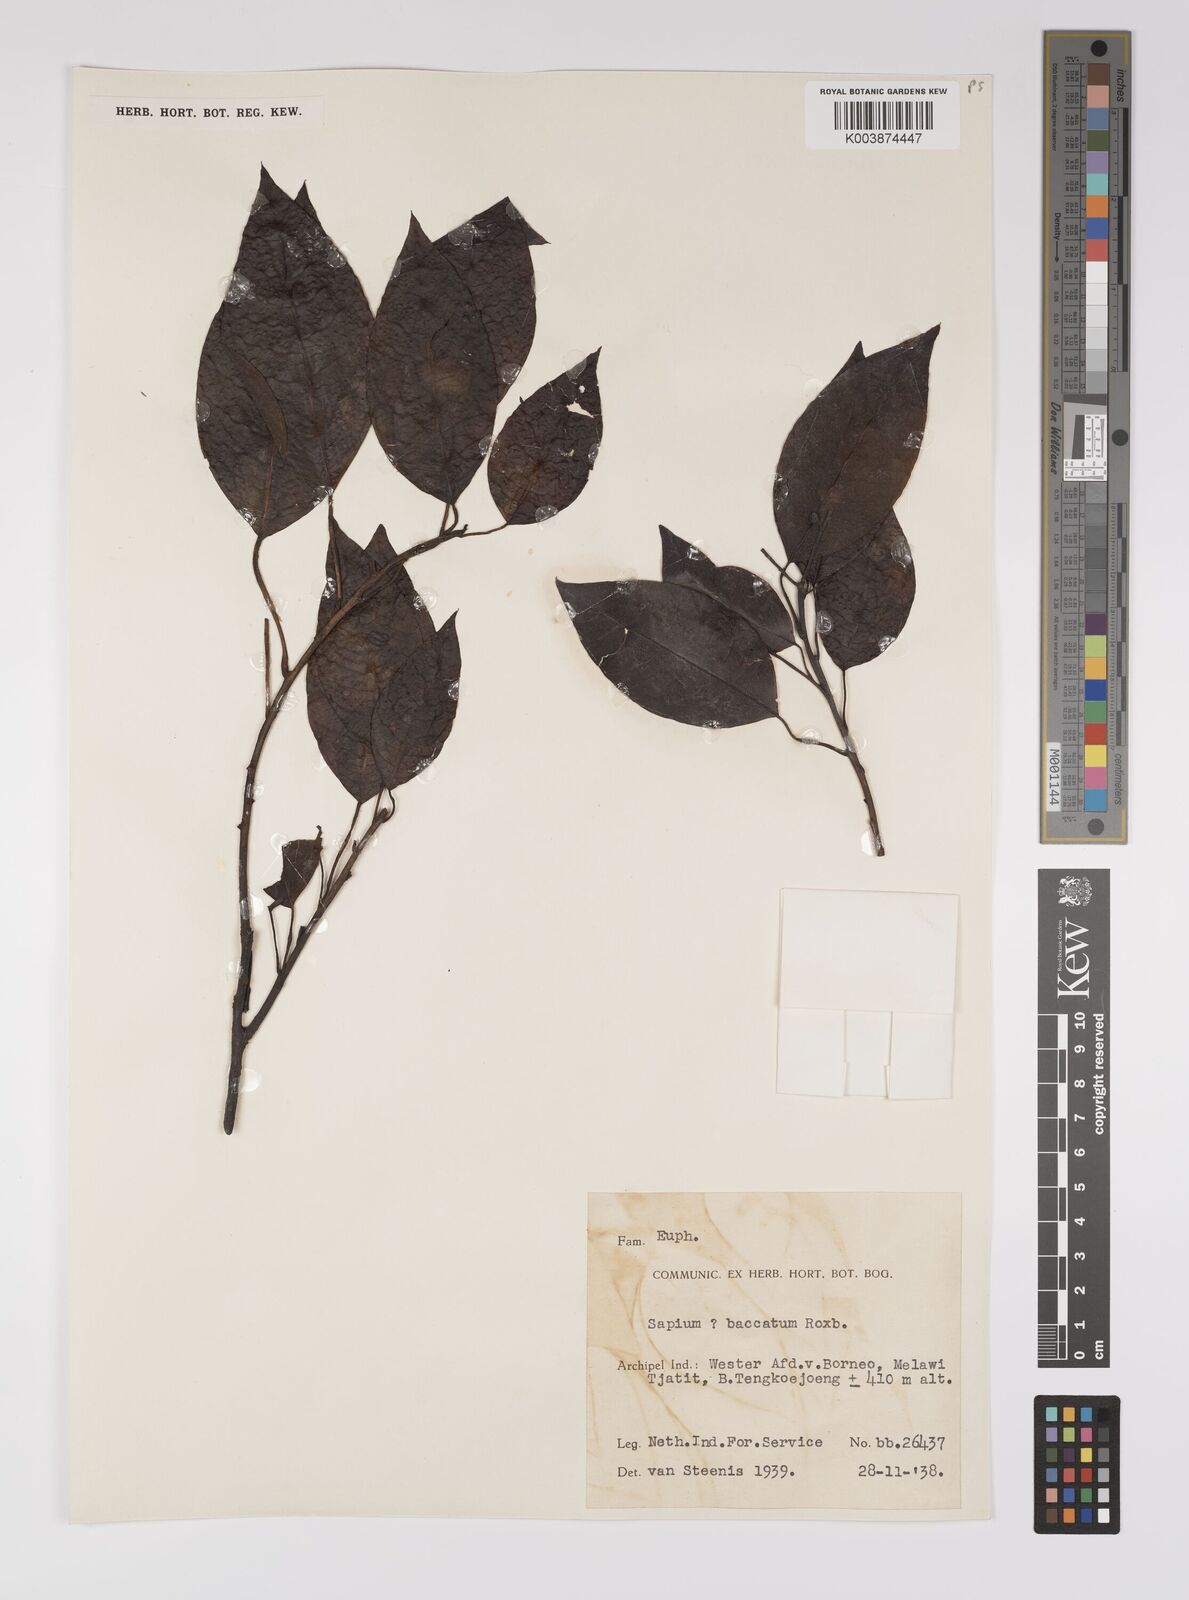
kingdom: Plantae
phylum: Tracheophyta
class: Magnoliopsida
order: Malpighiales
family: Euphorbiaceae
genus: Balakata
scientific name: Balakata baccata
